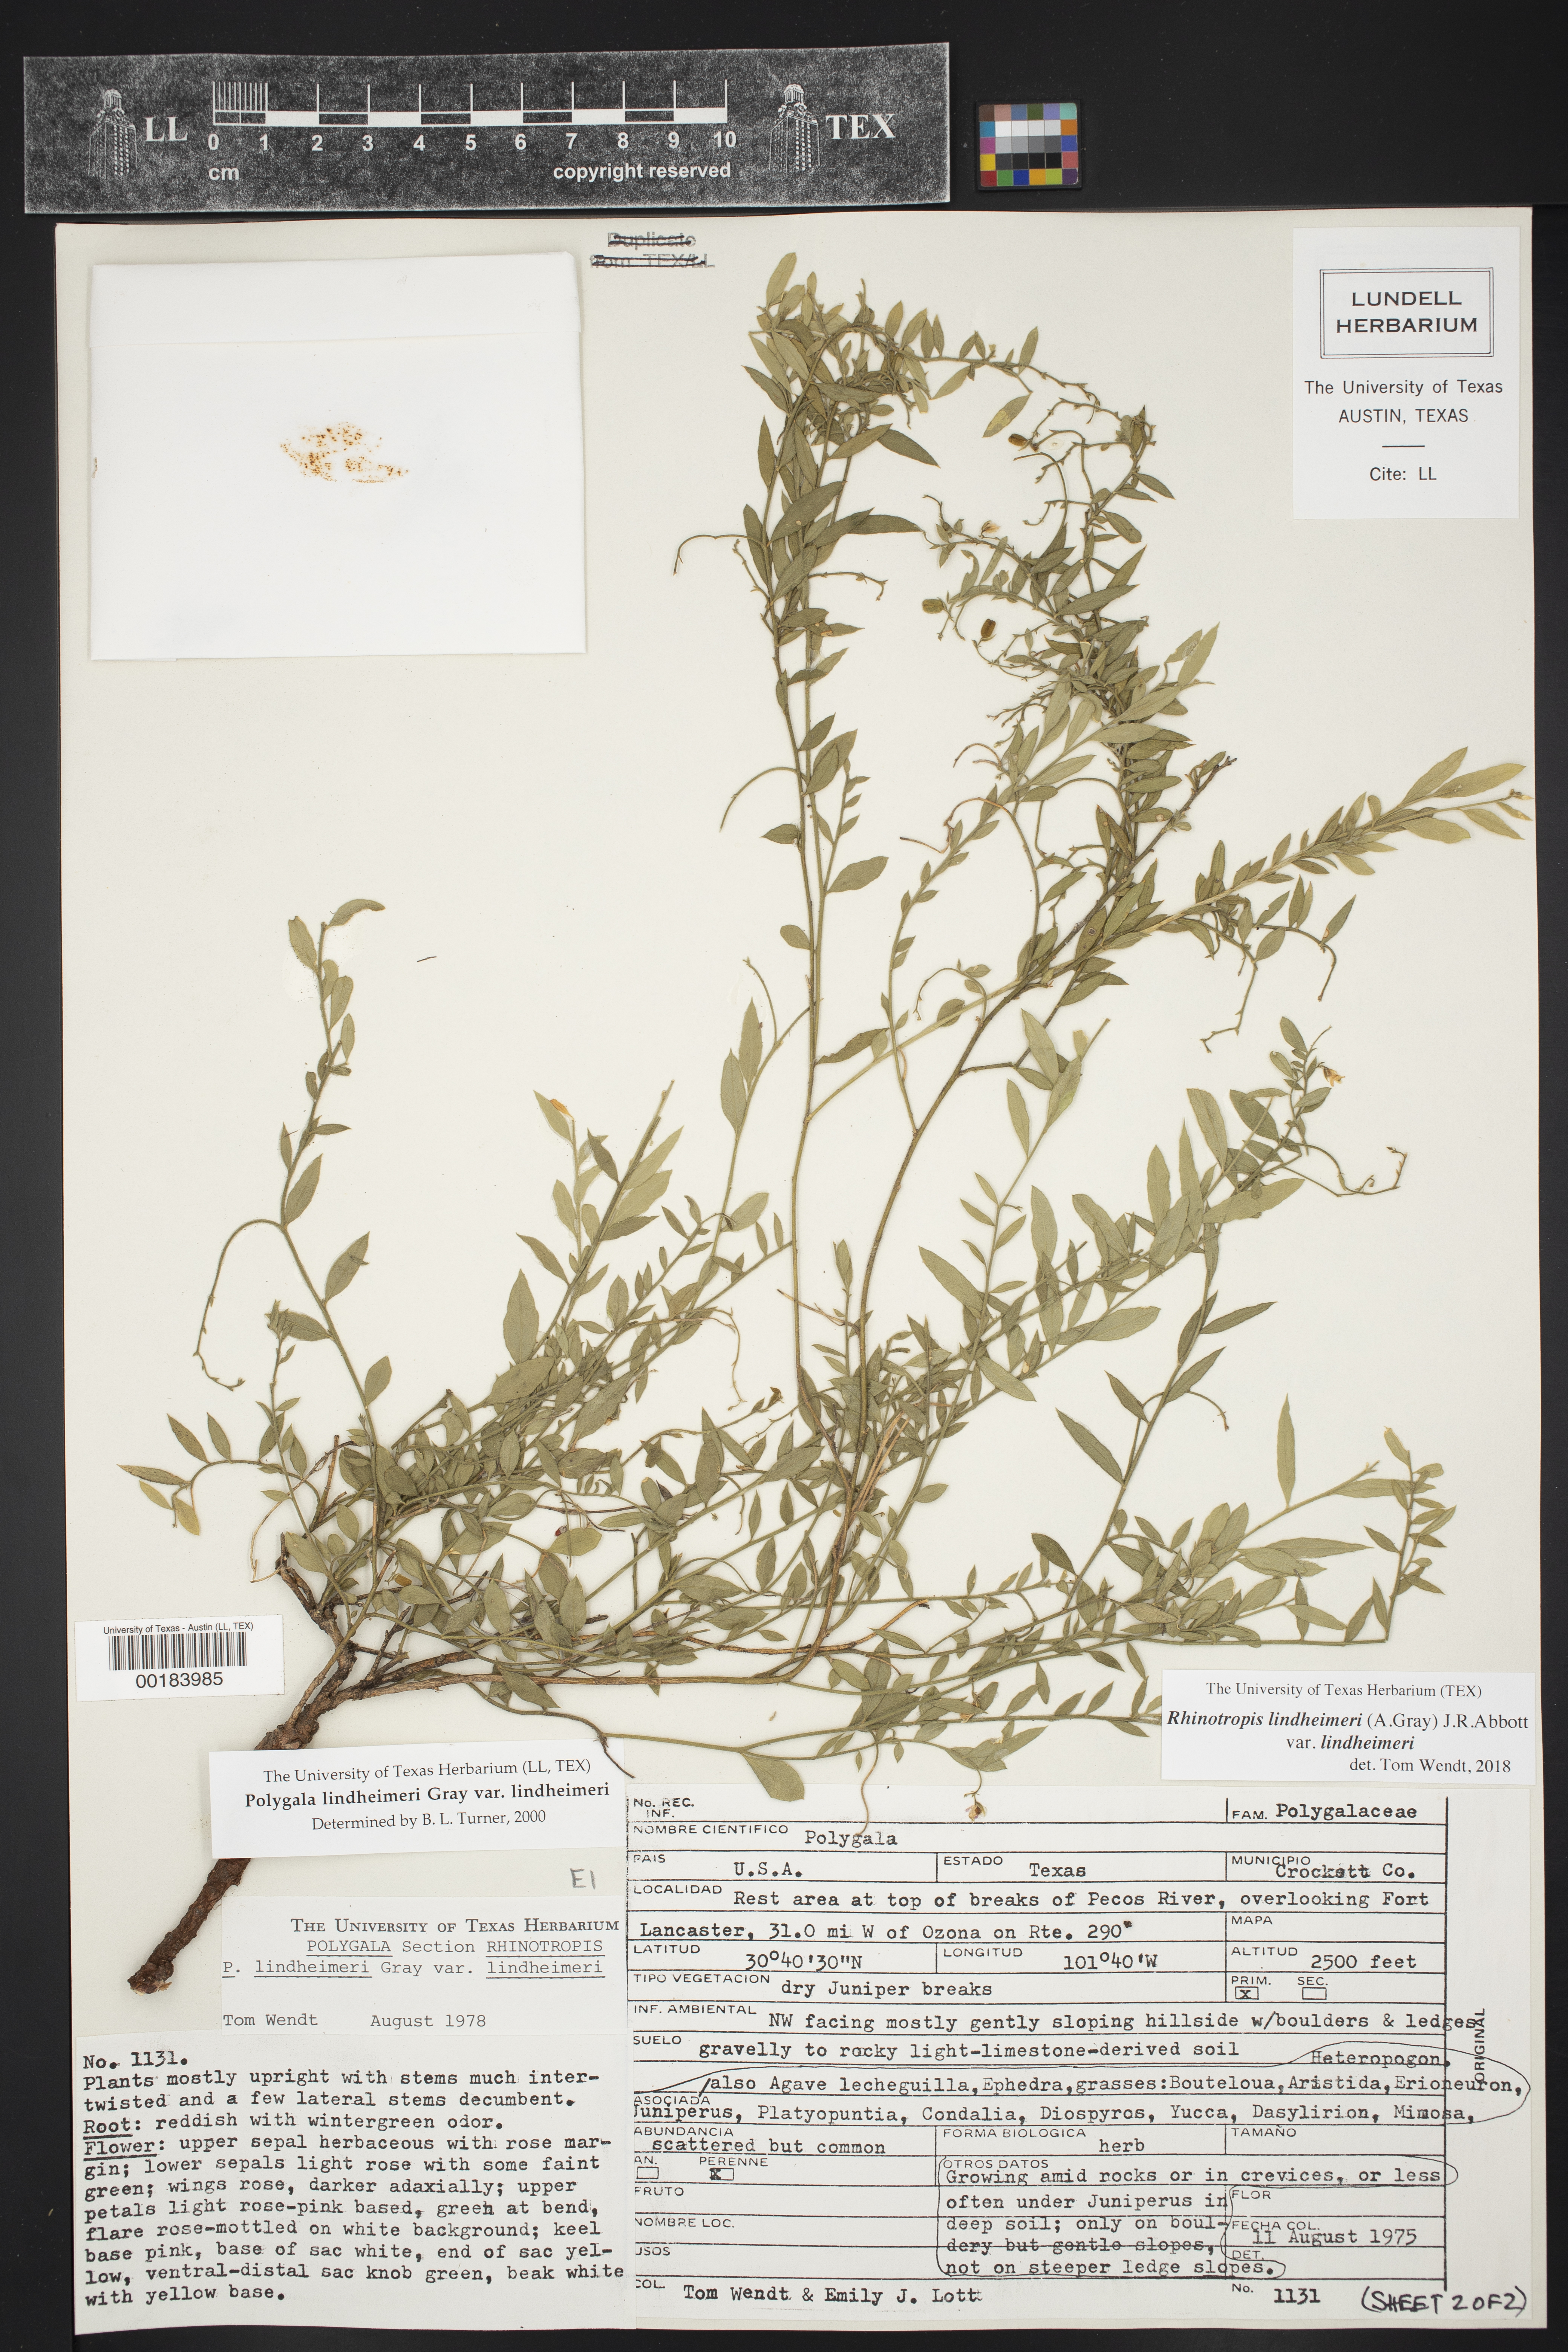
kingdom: Plantae
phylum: Tracheophyta
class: Magnoliopsida
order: Fabales
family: Polygalaceae
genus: Rhinotropis
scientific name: Rhinotropis lindheimeri
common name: Shrubby milkwort
